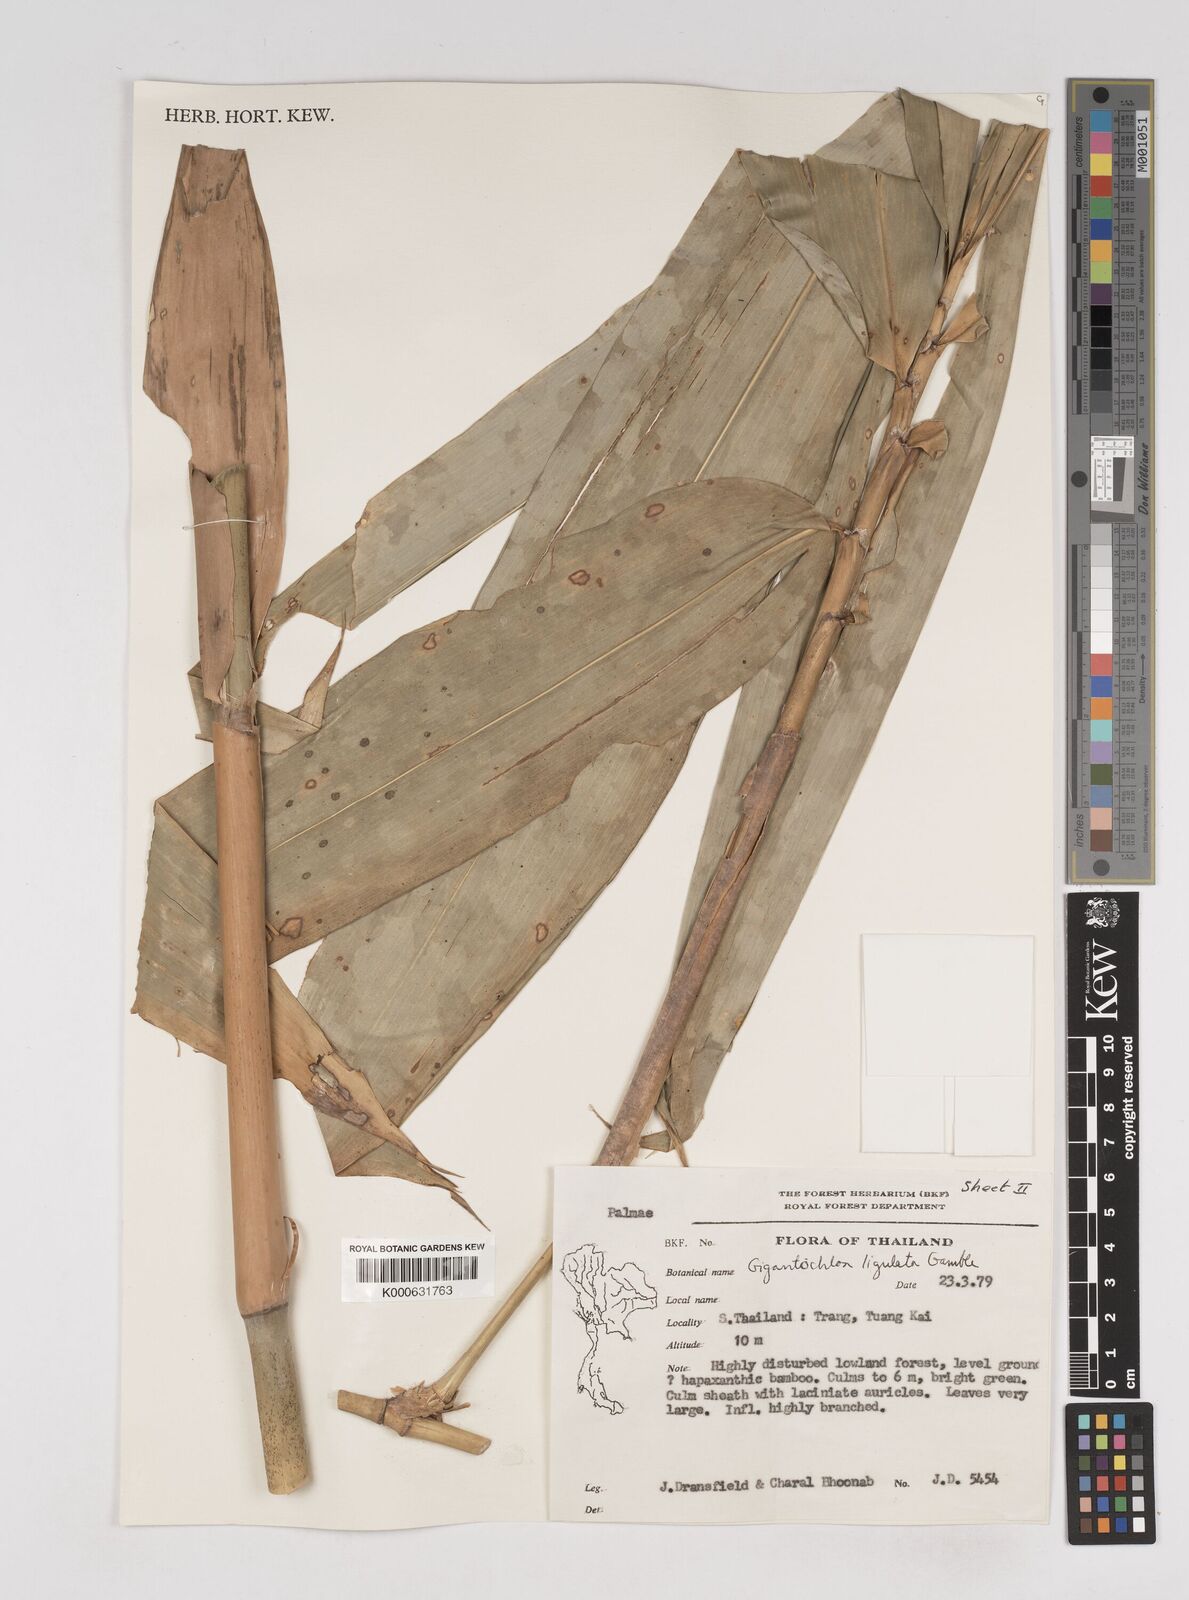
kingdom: Plantae
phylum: Tracheophyta
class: Liliopsida
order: Poales
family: Poaceae
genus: Gigantochloa
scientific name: Gigantochloa ligulata
